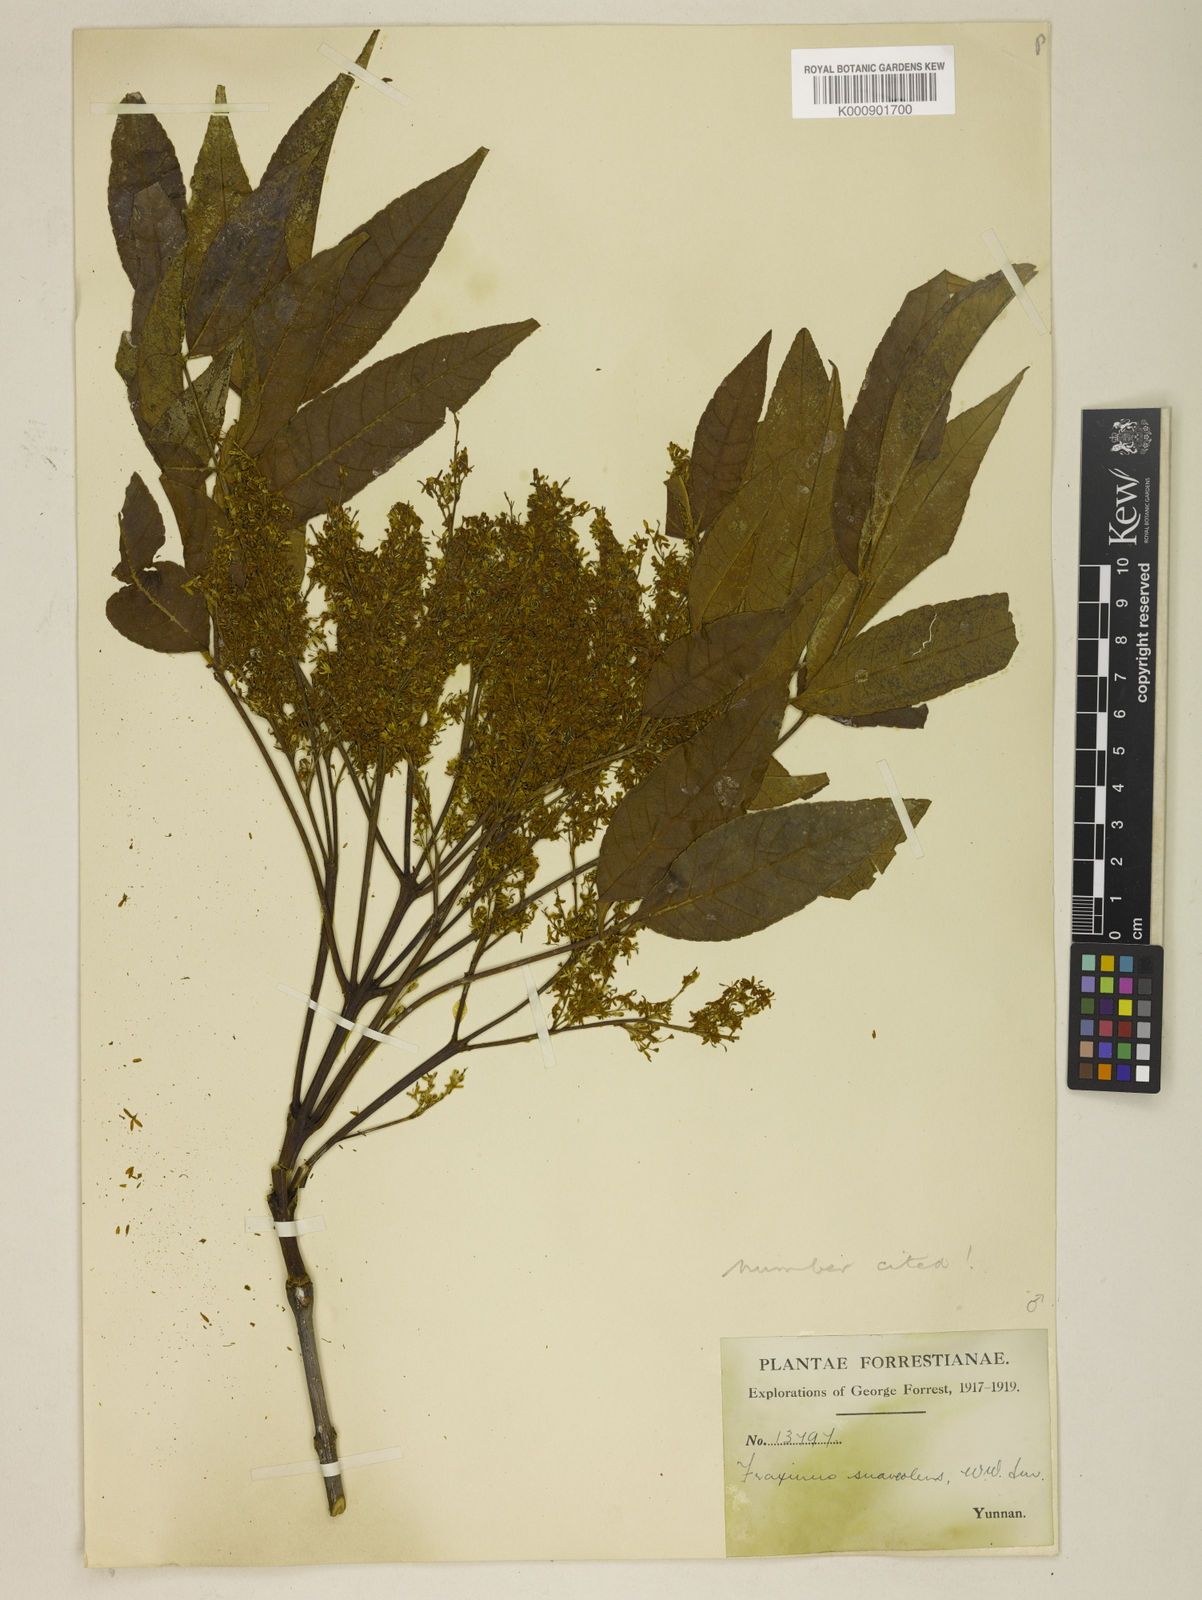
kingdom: Plantae
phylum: Tracheophyta
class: Magnoliopsida
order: Lamiales
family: Oleaceae
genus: Fraxinus
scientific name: Fraxinus paxiana
